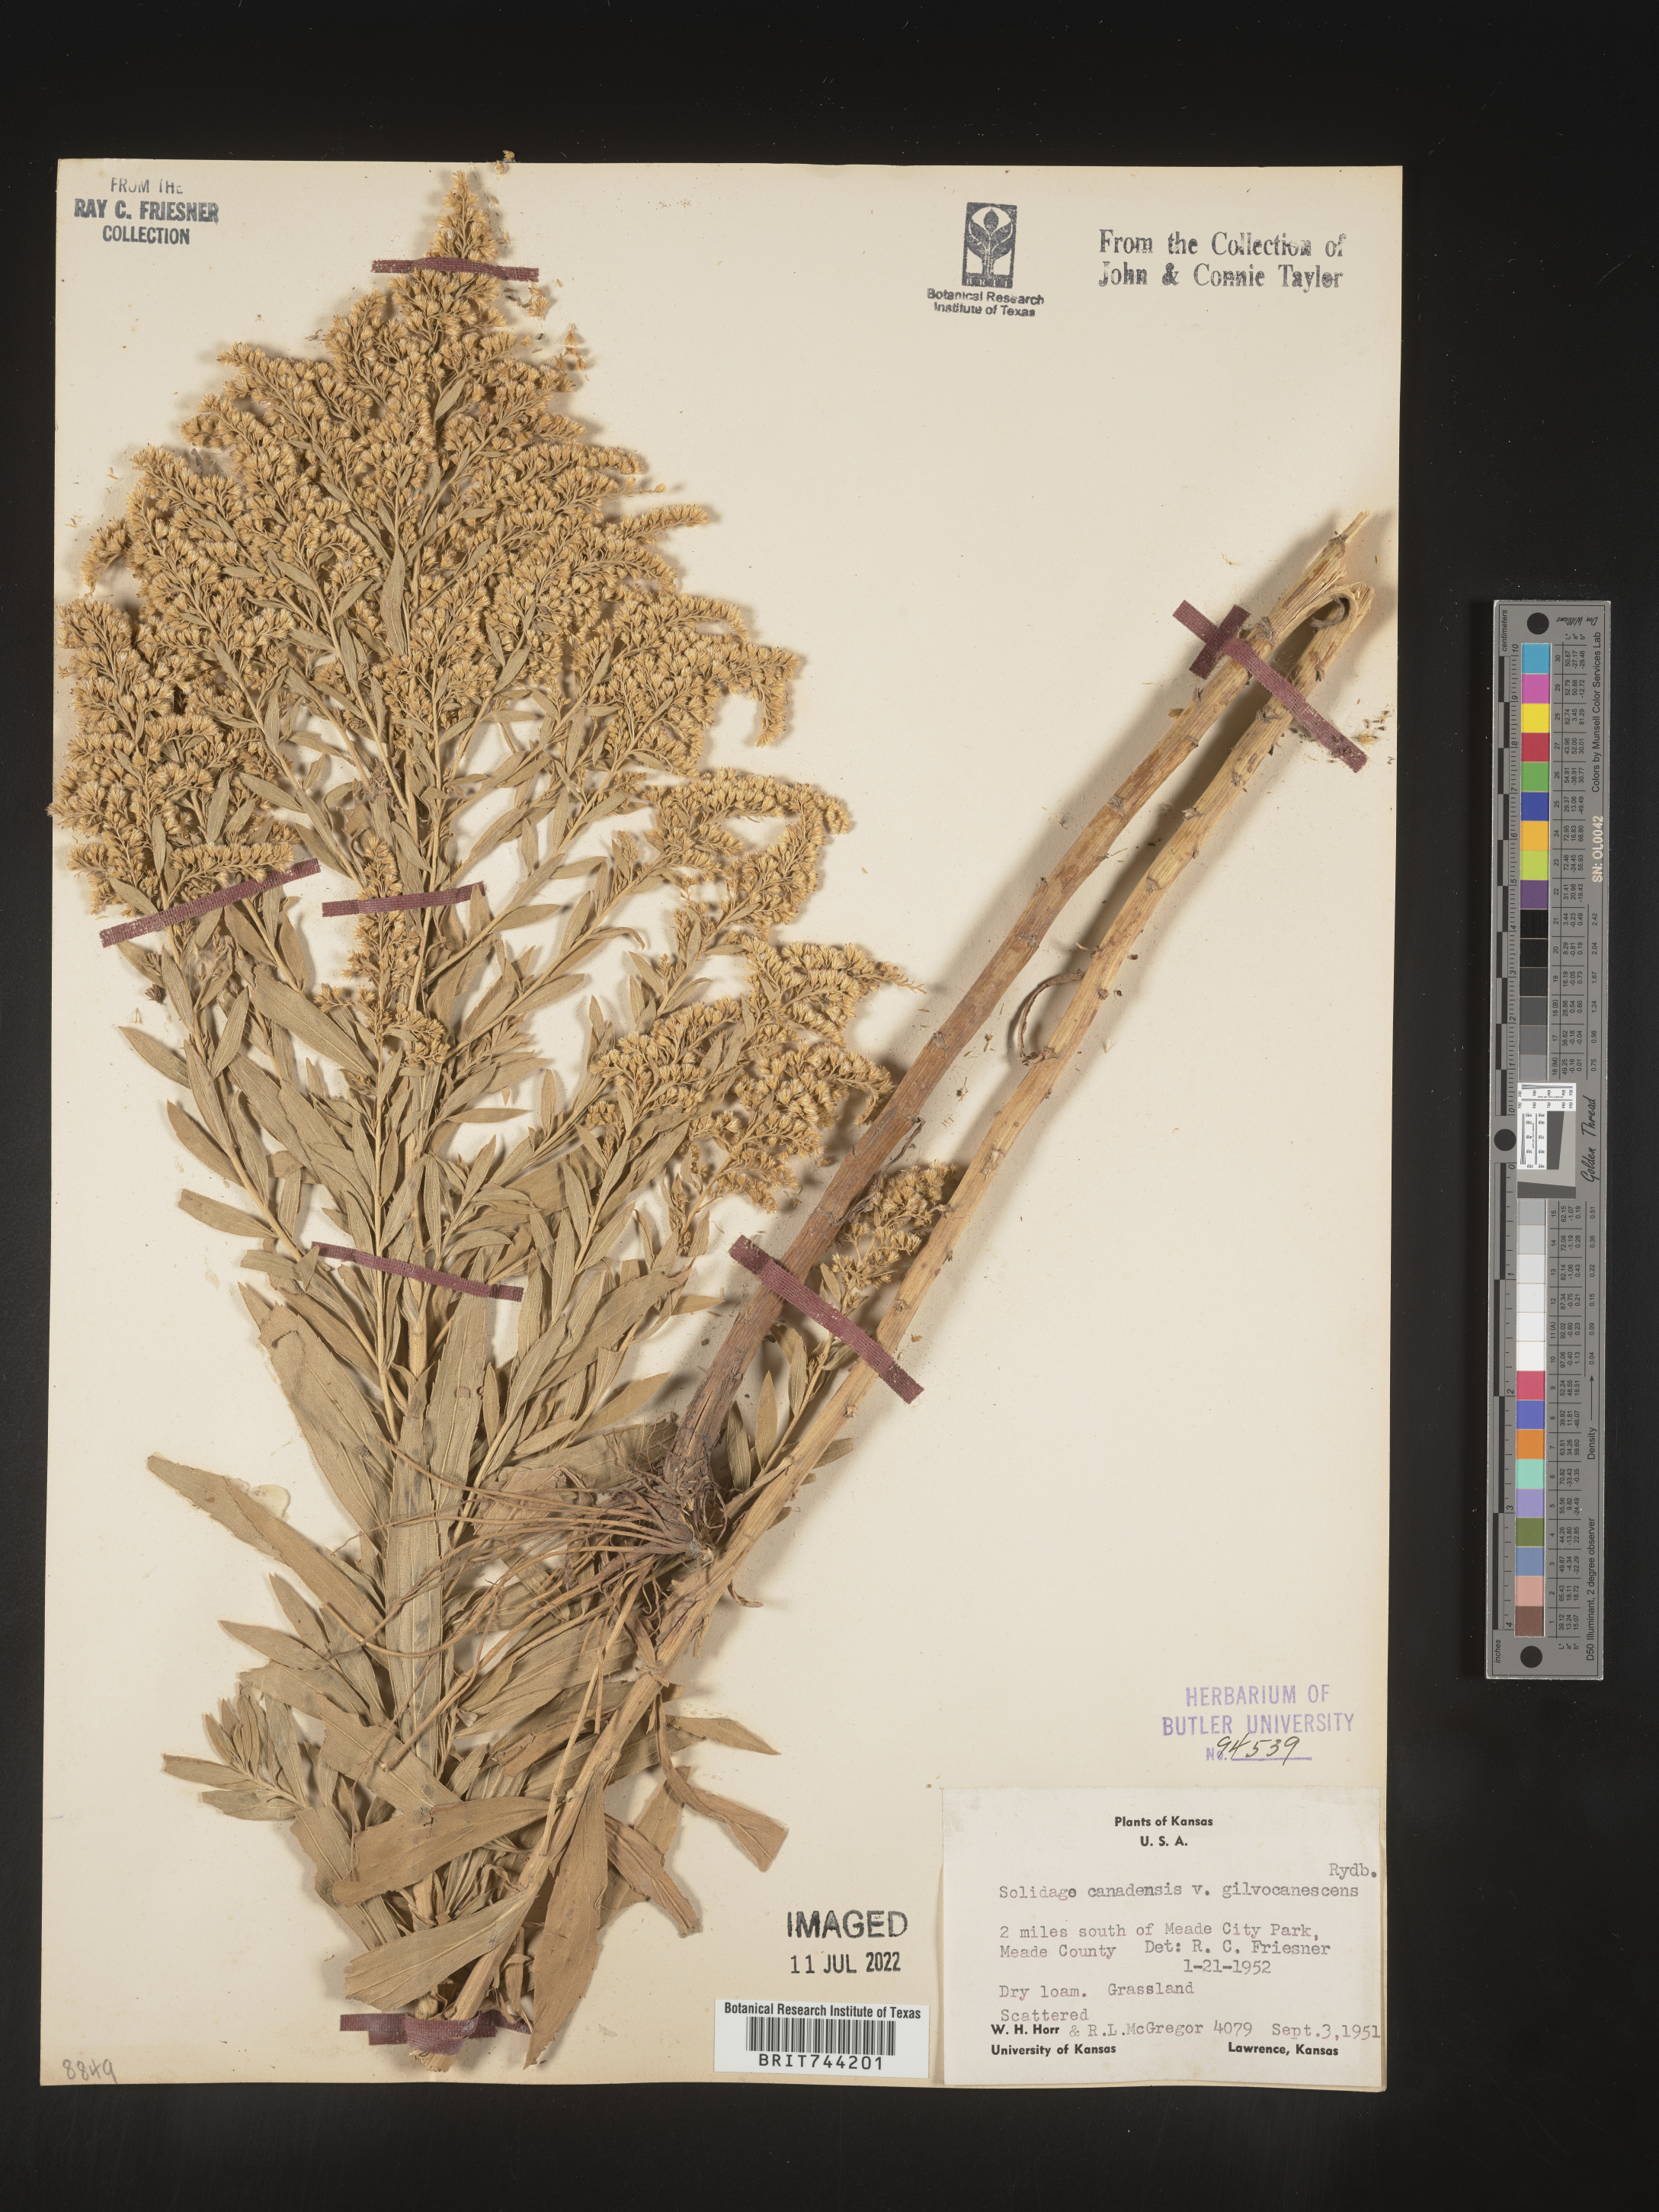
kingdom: Plantae
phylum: Tracheophyta
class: Magnoliopsida
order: Asterales
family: Asteraceae
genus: Solidago
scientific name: Solidago altissima
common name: Late goldenrod
